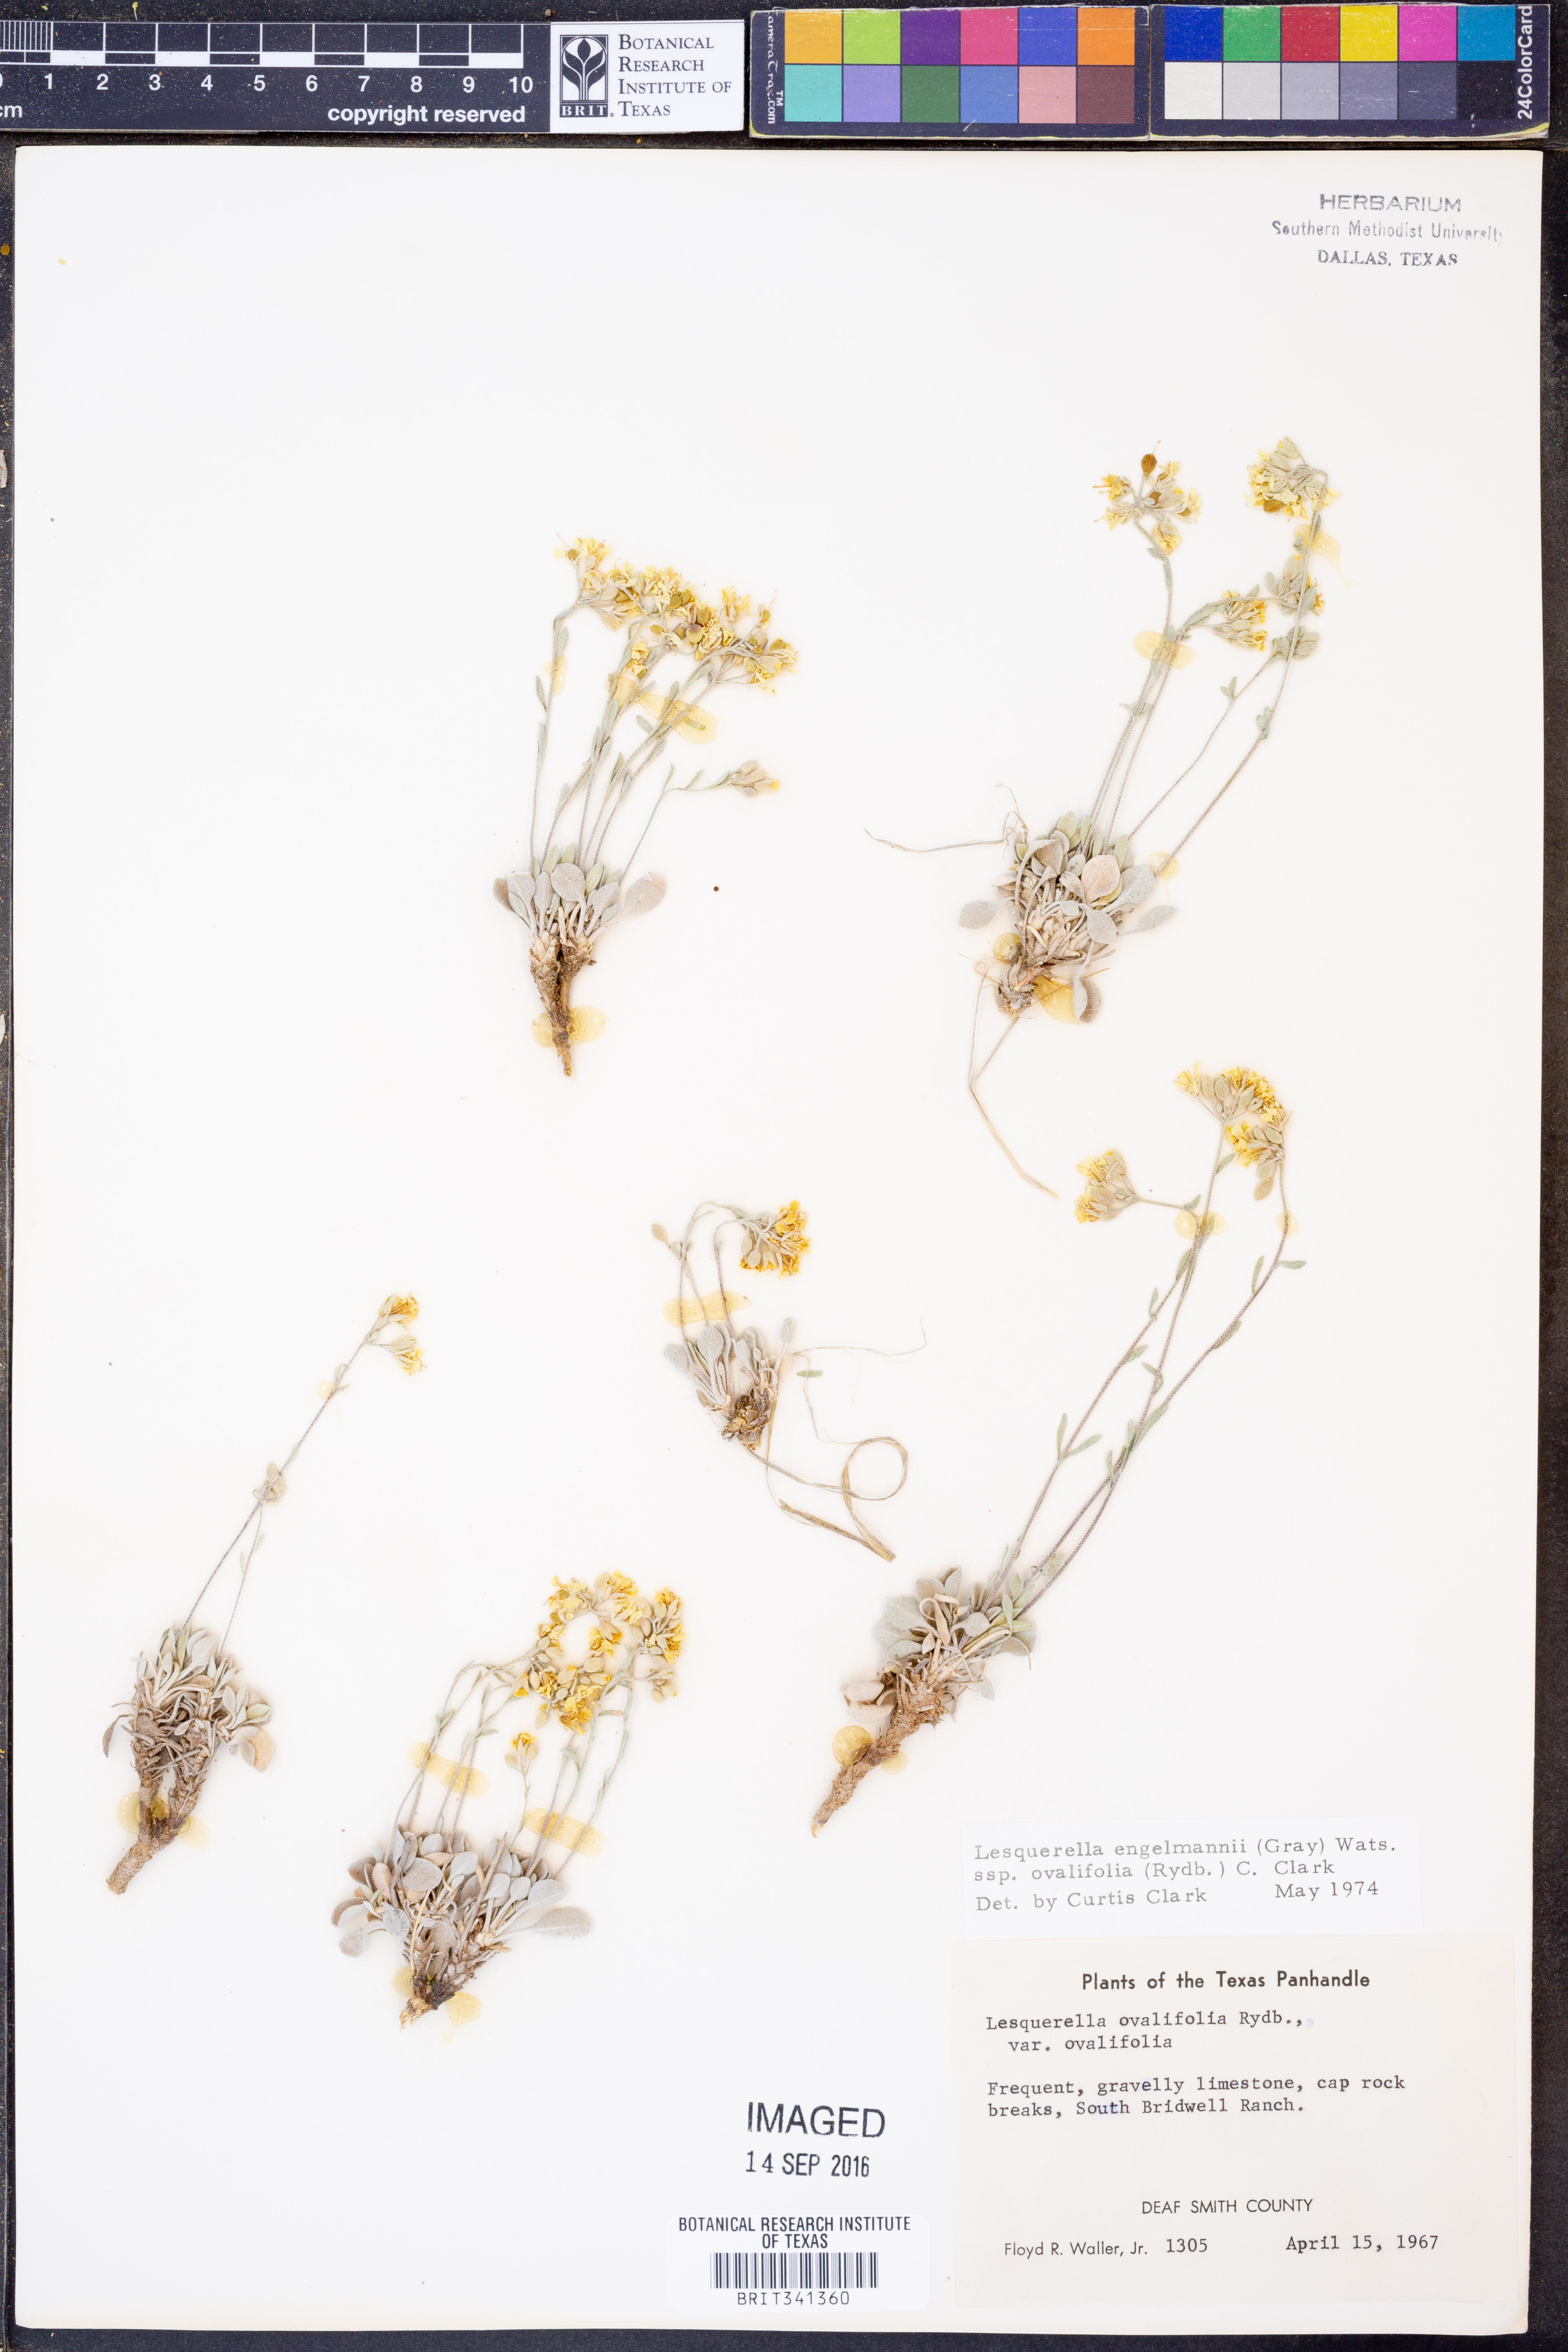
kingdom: Plantae
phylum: Tracheophyta
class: Magnoliopsida
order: Brassicales
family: Brassicaceae
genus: Physaria
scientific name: Physaria ovalifolia
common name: Round-leaf bladderpod
